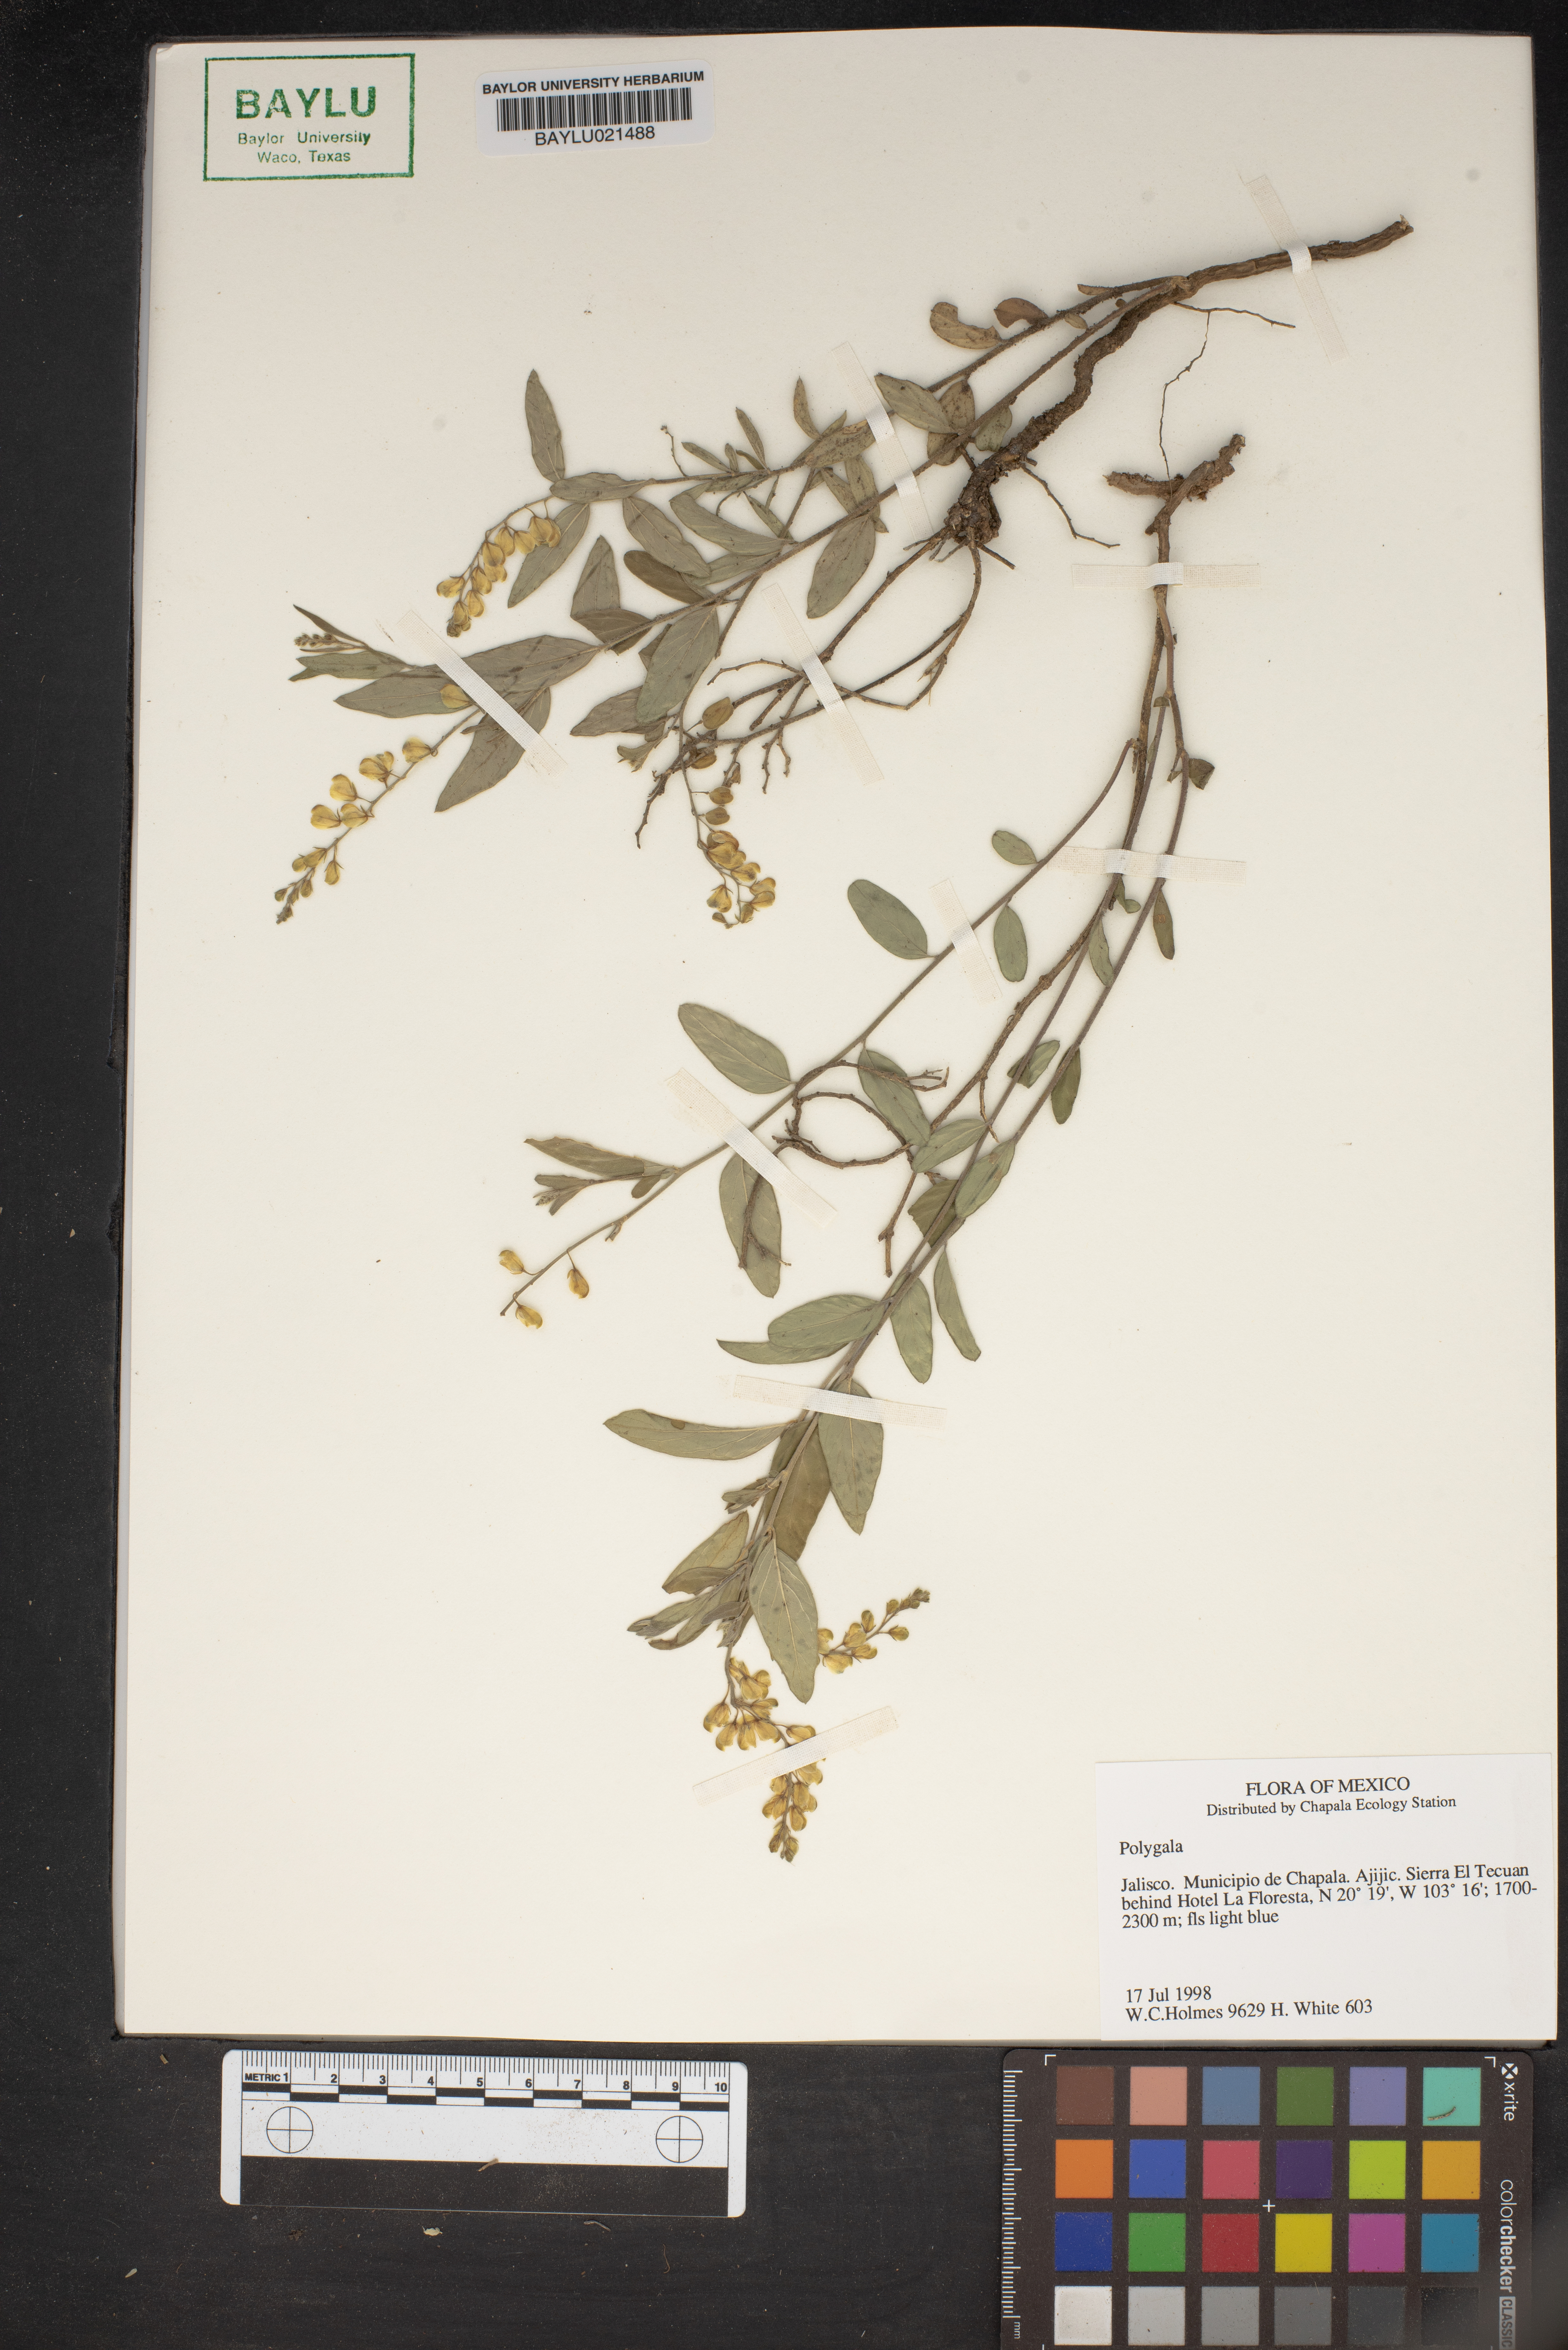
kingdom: Plantae
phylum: Tracheophyta
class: Magnoliopsida
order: Fabales
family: Polygalaceae
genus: Polygala
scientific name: Polygala
